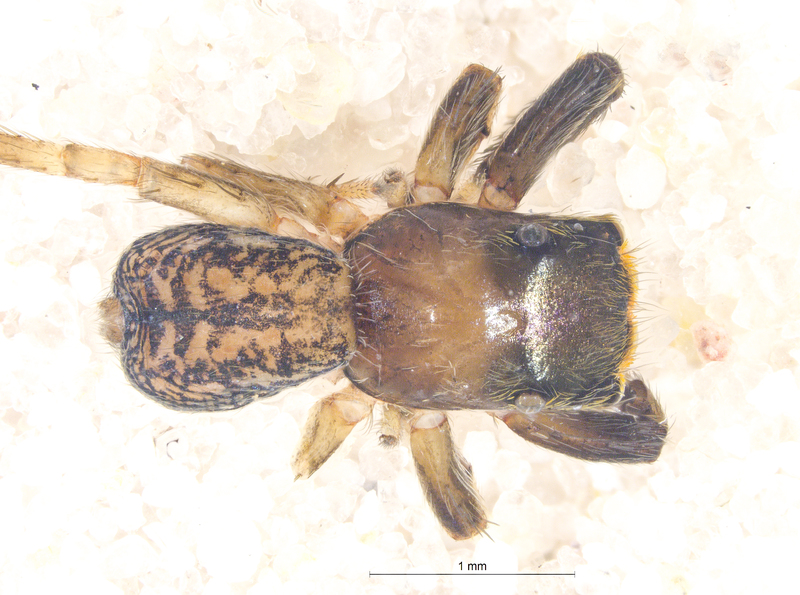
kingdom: Animalia
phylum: Arthropoda
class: Arachnida
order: Araneae
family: Salticidae
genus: Euophrys
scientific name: Euophrys frontalis
